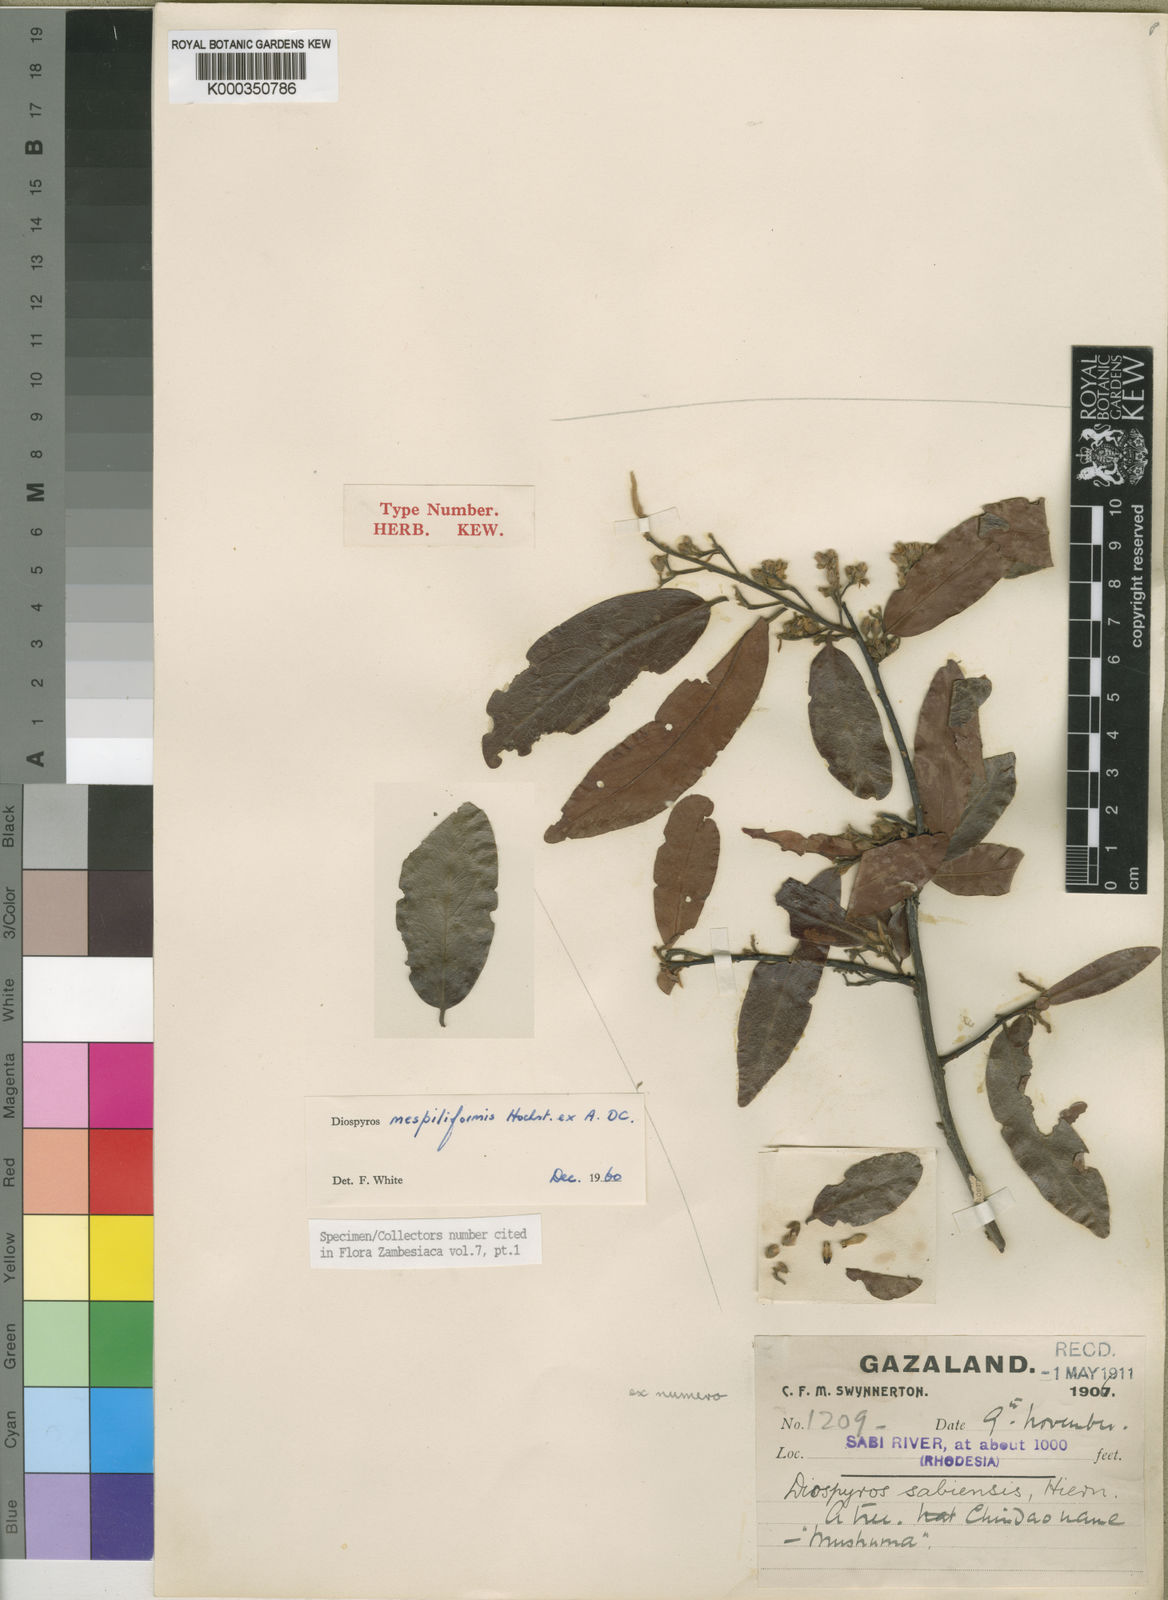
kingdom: Plantae
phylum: Tracheophyta
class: Magnoliopsida
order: Ericales
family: Ebenaceae
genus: Diospyros
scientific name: Diospyros mespiliformis
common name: Ebony diospyros
